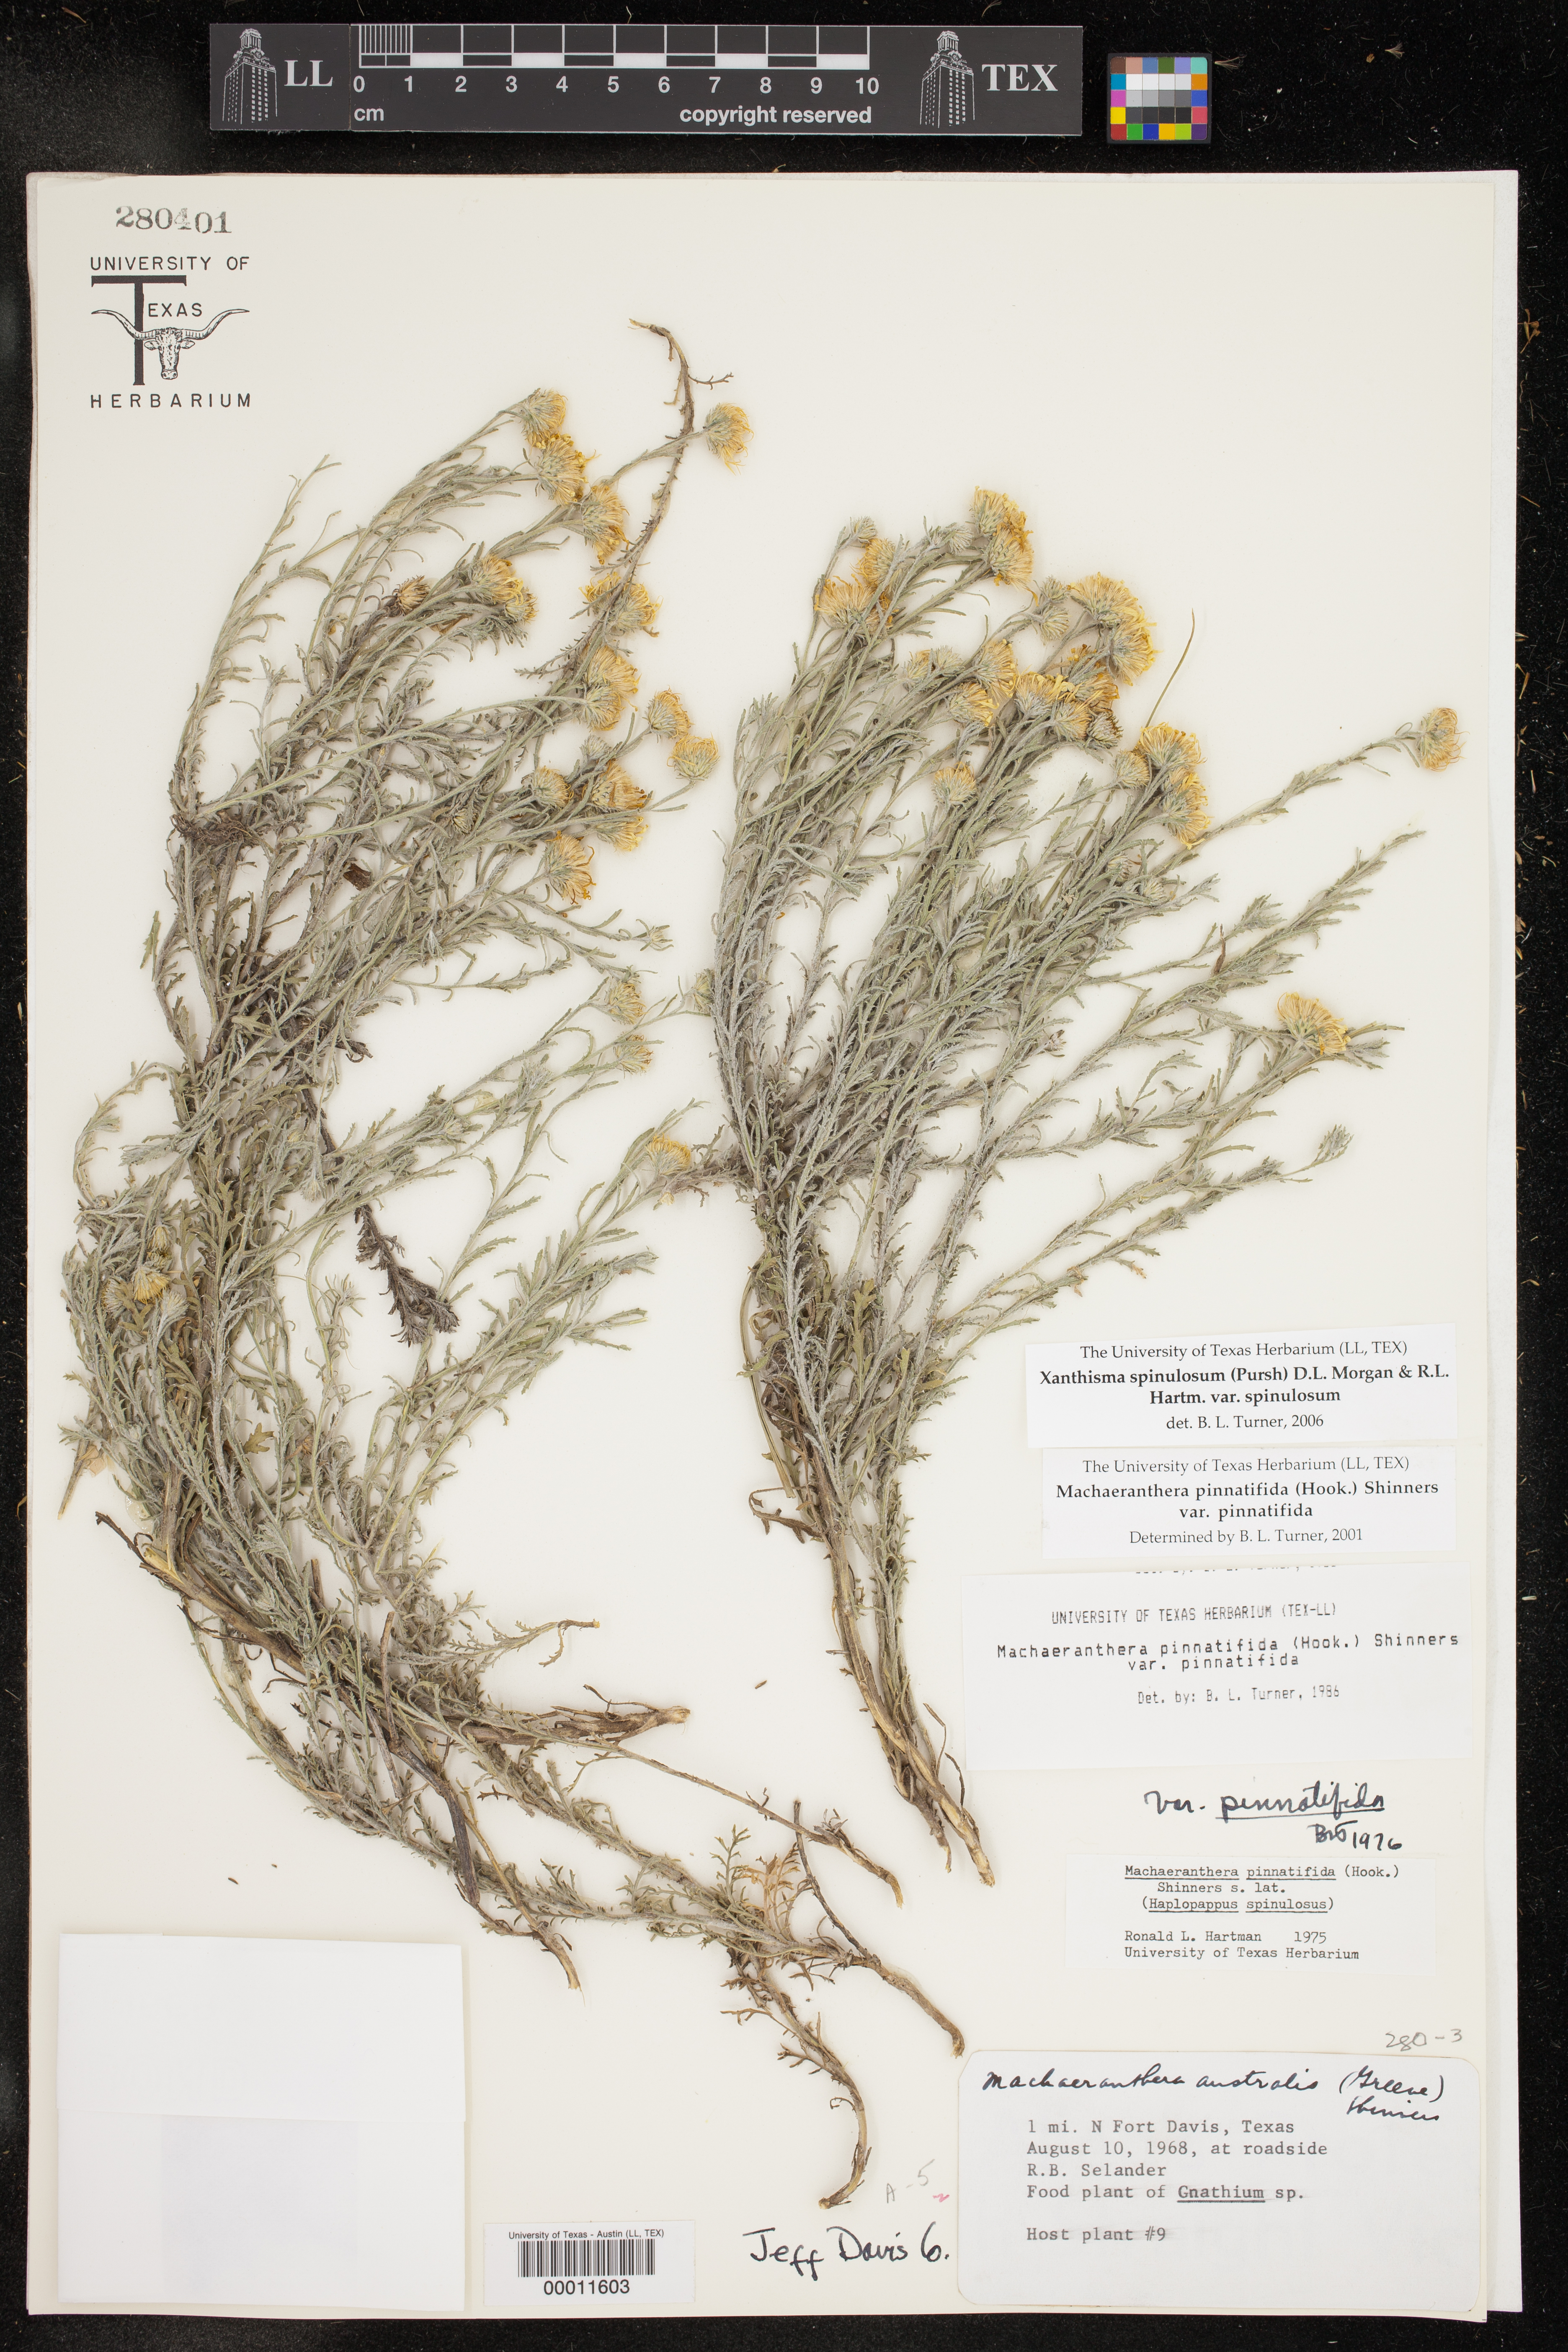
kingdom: Plantae
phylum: Tracheophyta
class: Magnoliopsida
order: Asterales
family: Asteraceae
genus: Xanthisma
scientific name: Xanthisma spinulosum
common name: Spiny goldenweed
